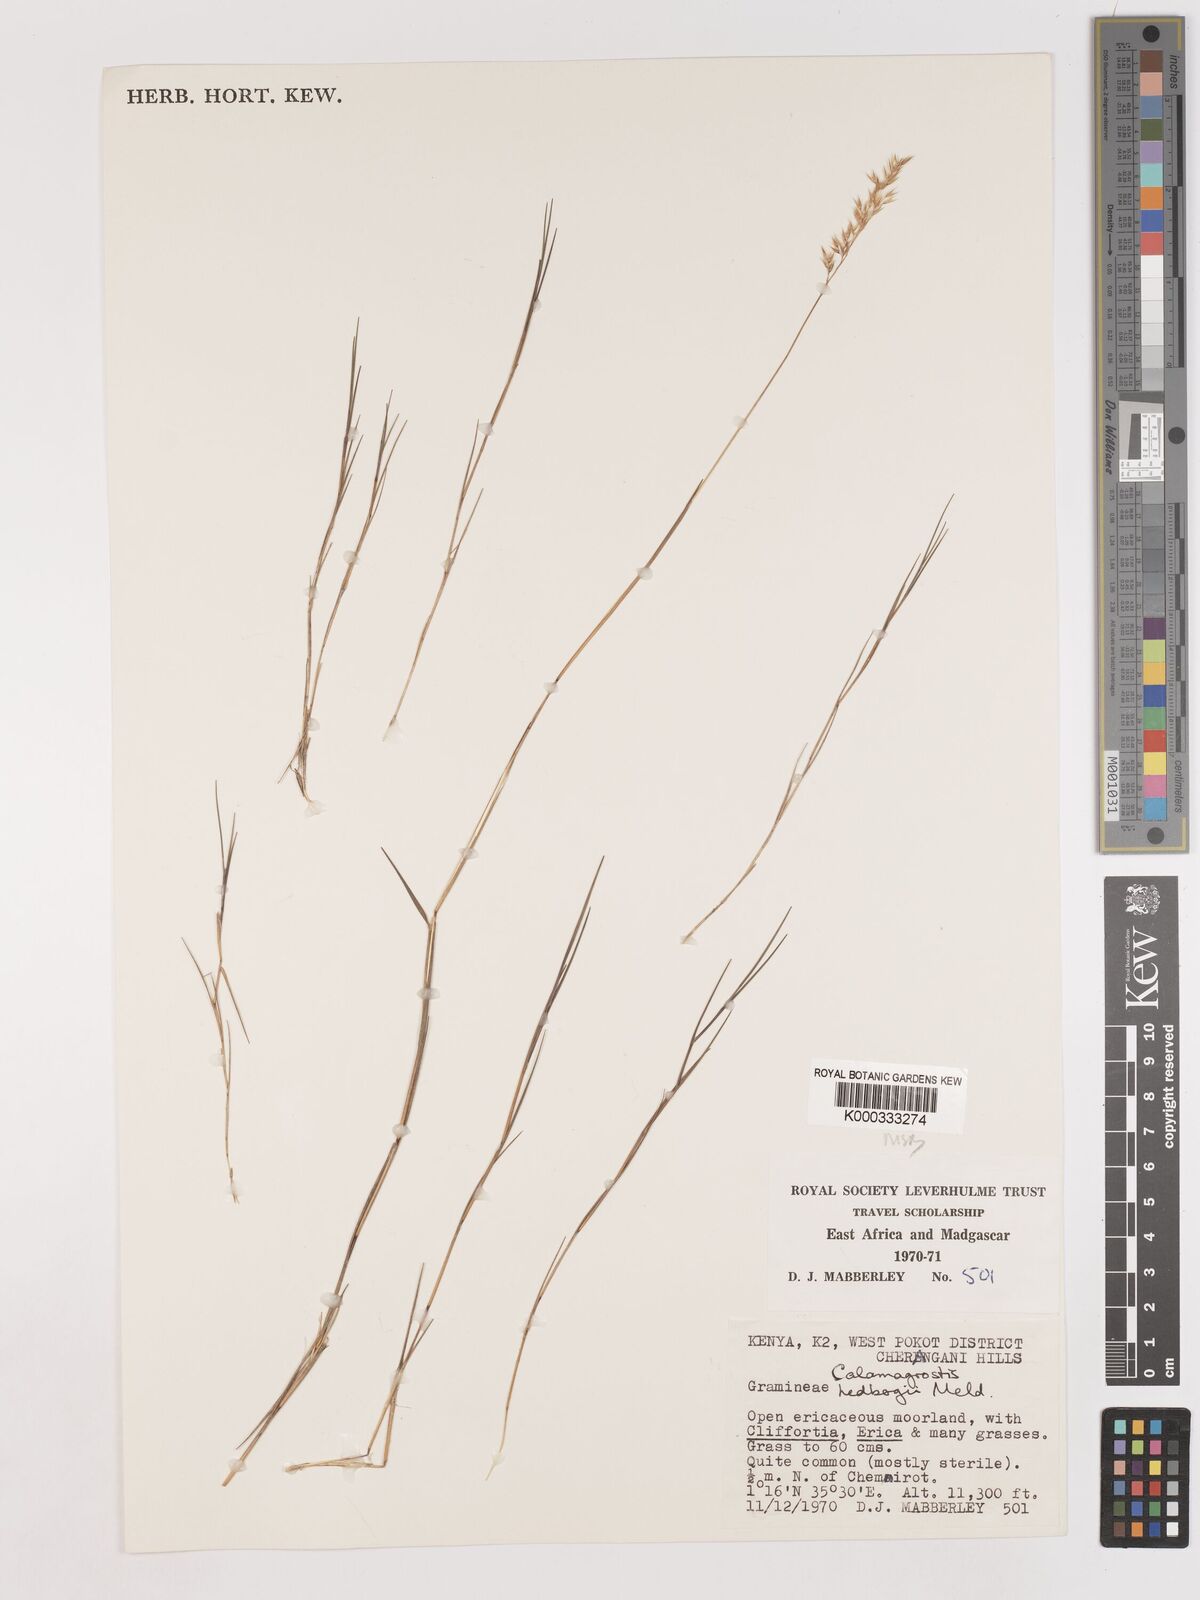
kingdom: Plantae
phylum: Tracheophyta
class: Liliopsida
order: Poales
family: Poaceae
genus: Calamagrostis
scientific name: Calamagrostis hedbergii
